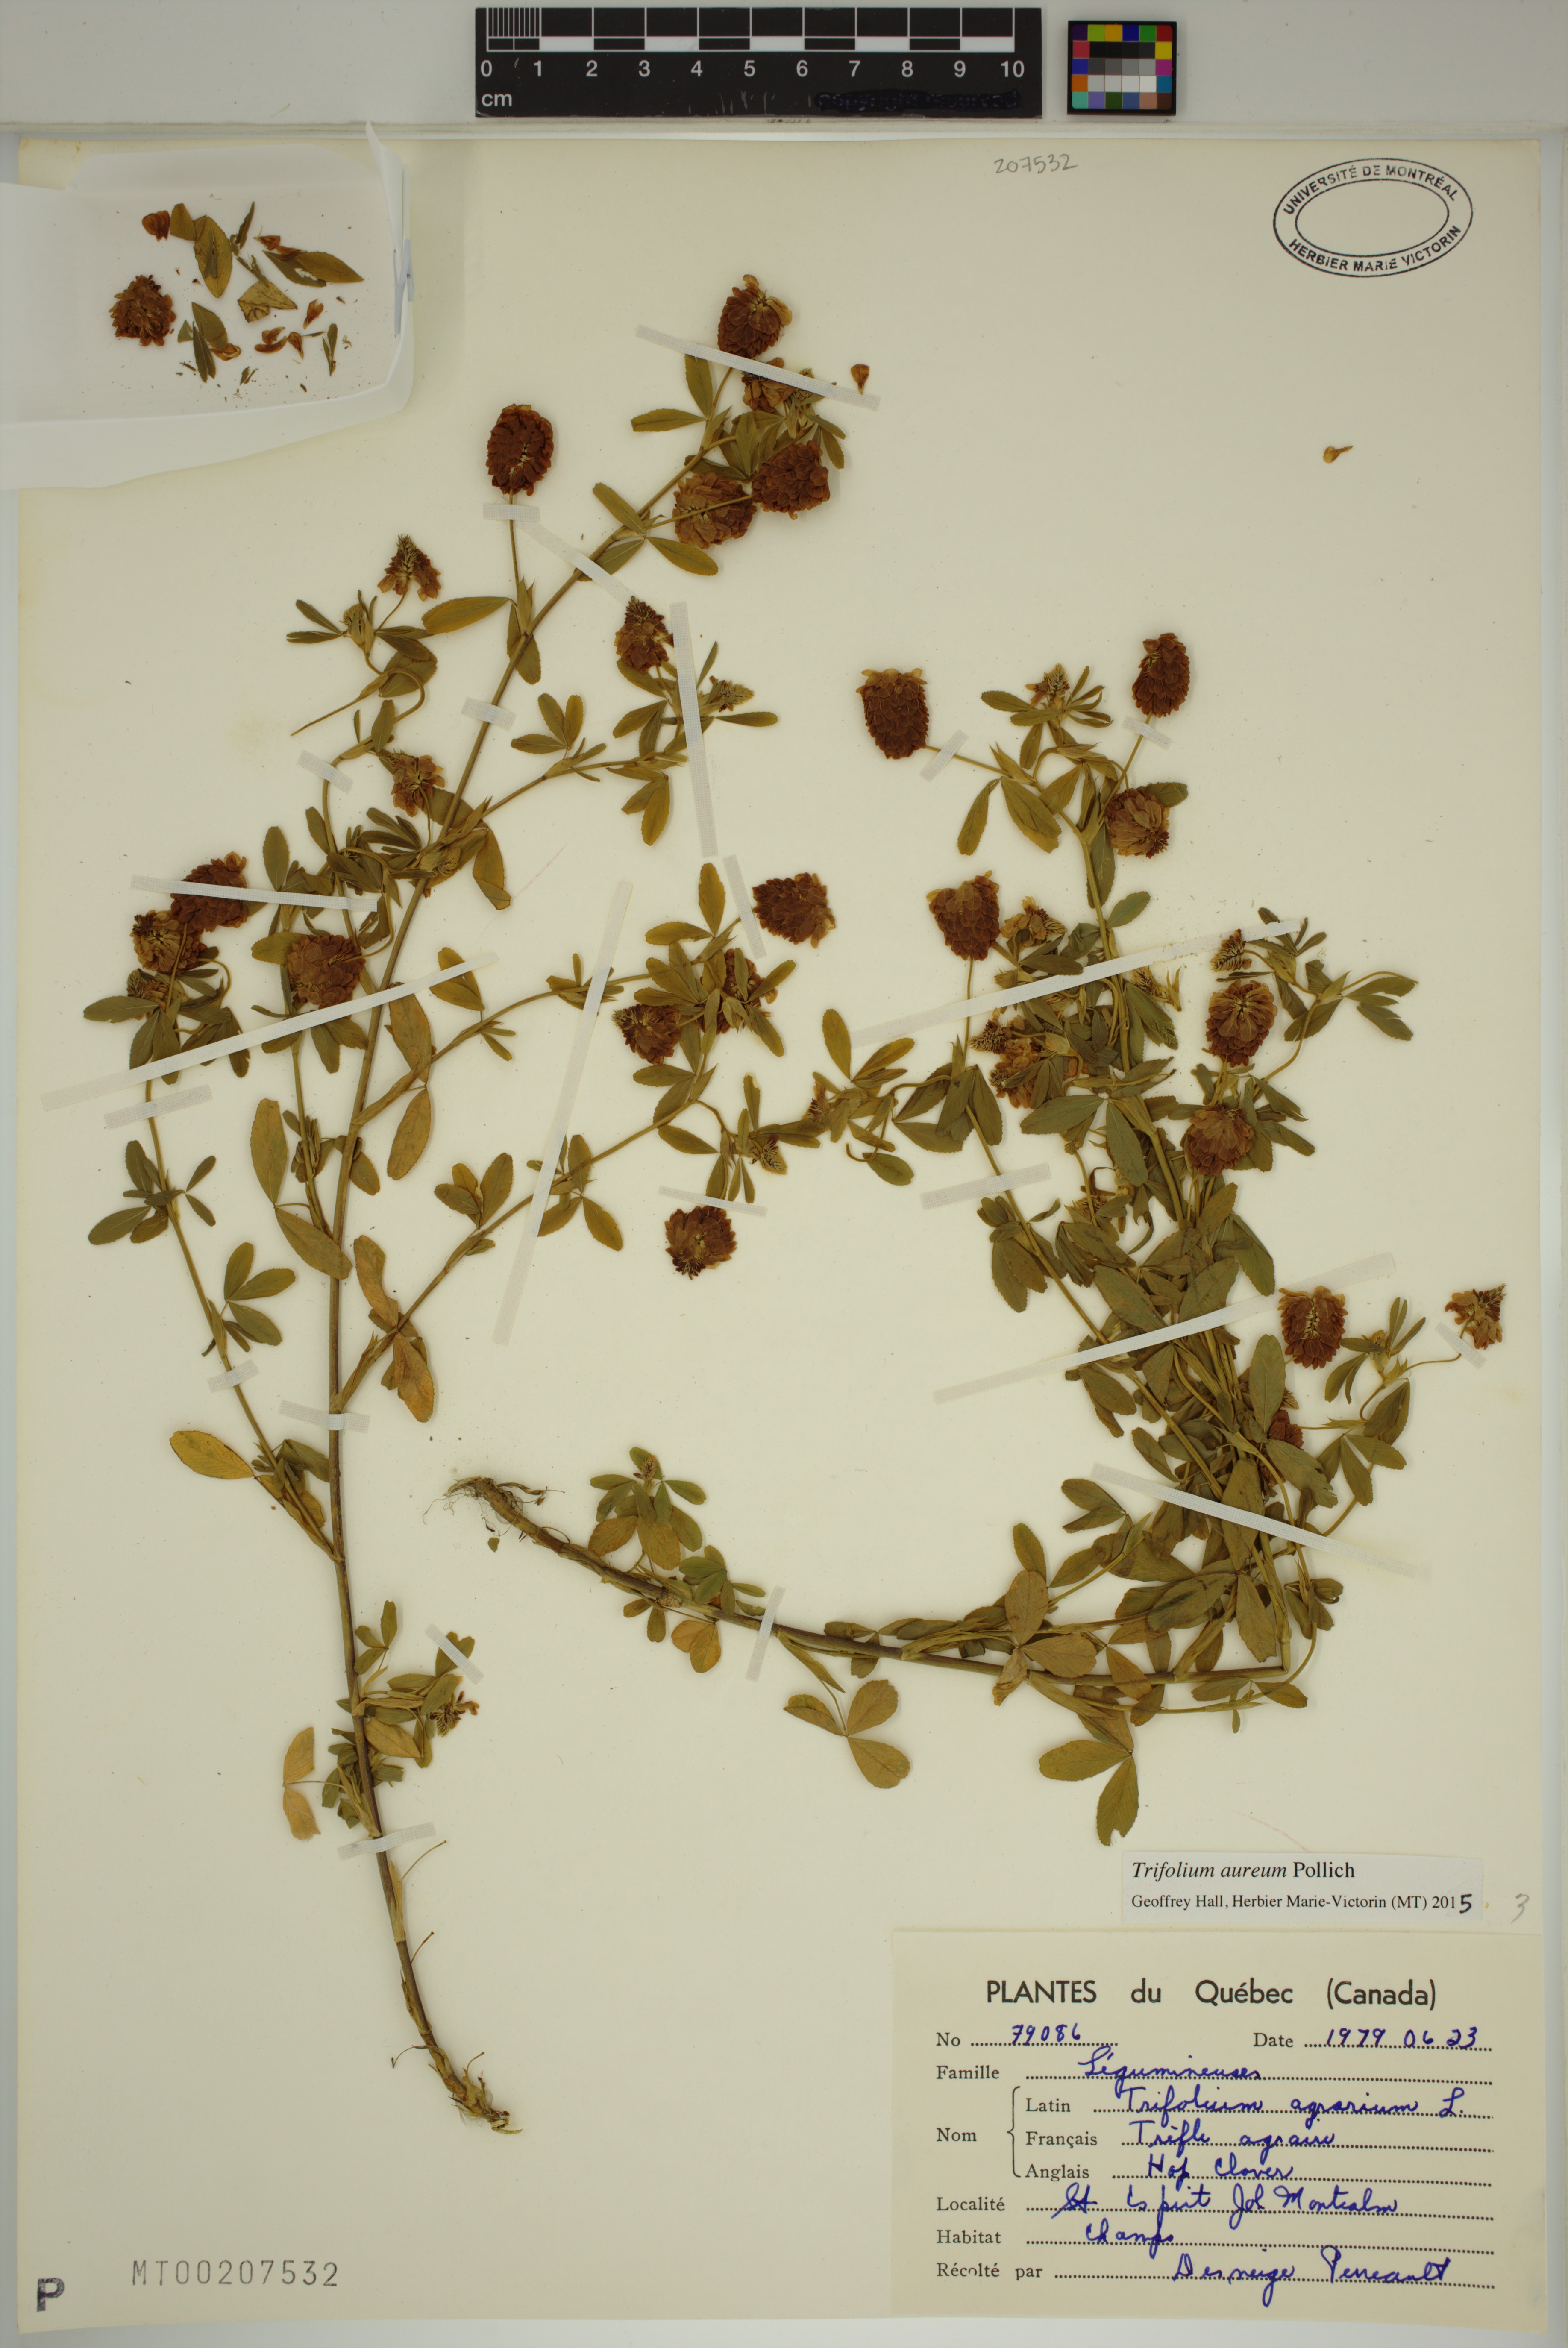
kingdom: Plantae
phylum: Tracheophyta
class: Magnoliopsida
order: Fabales
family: Fabaceae
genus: Trifolium
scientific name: Trifolium aureum
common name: Golden clover
